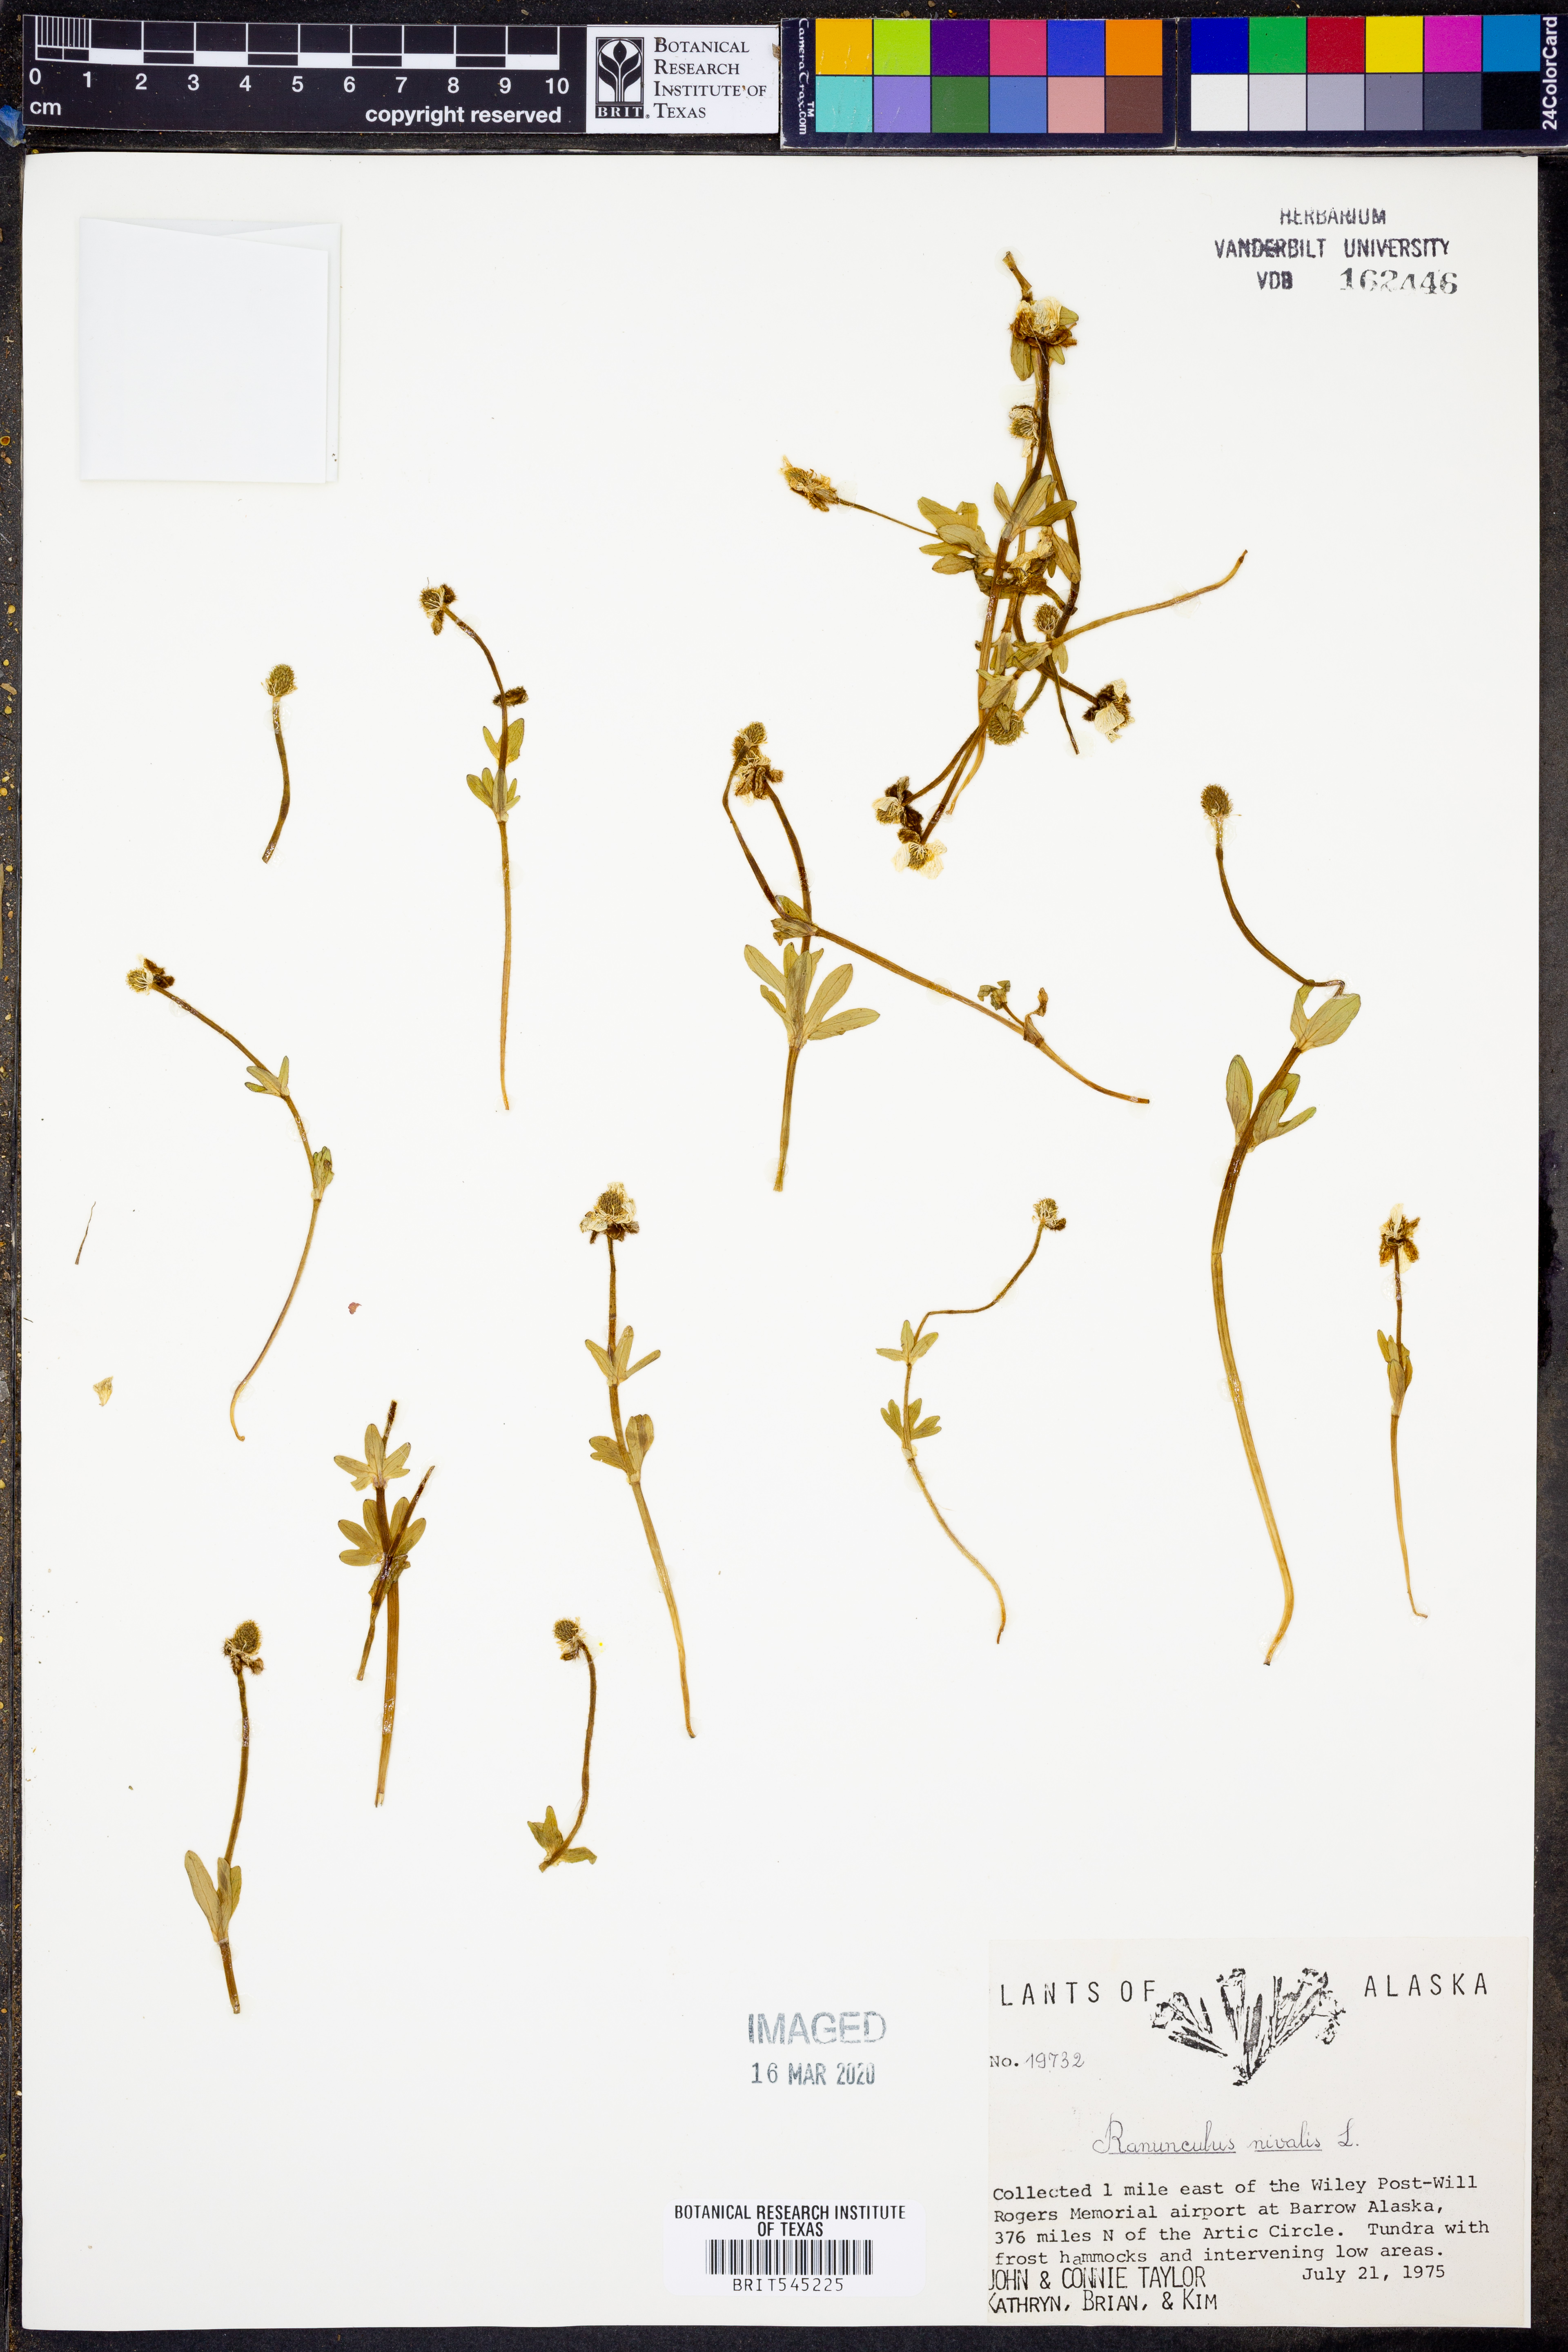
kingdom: Plantae
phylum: Tracheophyta
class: Magnoliopsida
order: Ranunculales
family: Ranunculaceae
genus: Ranunculus
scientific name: Ranunculus nivalis
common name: Snow buttercup
